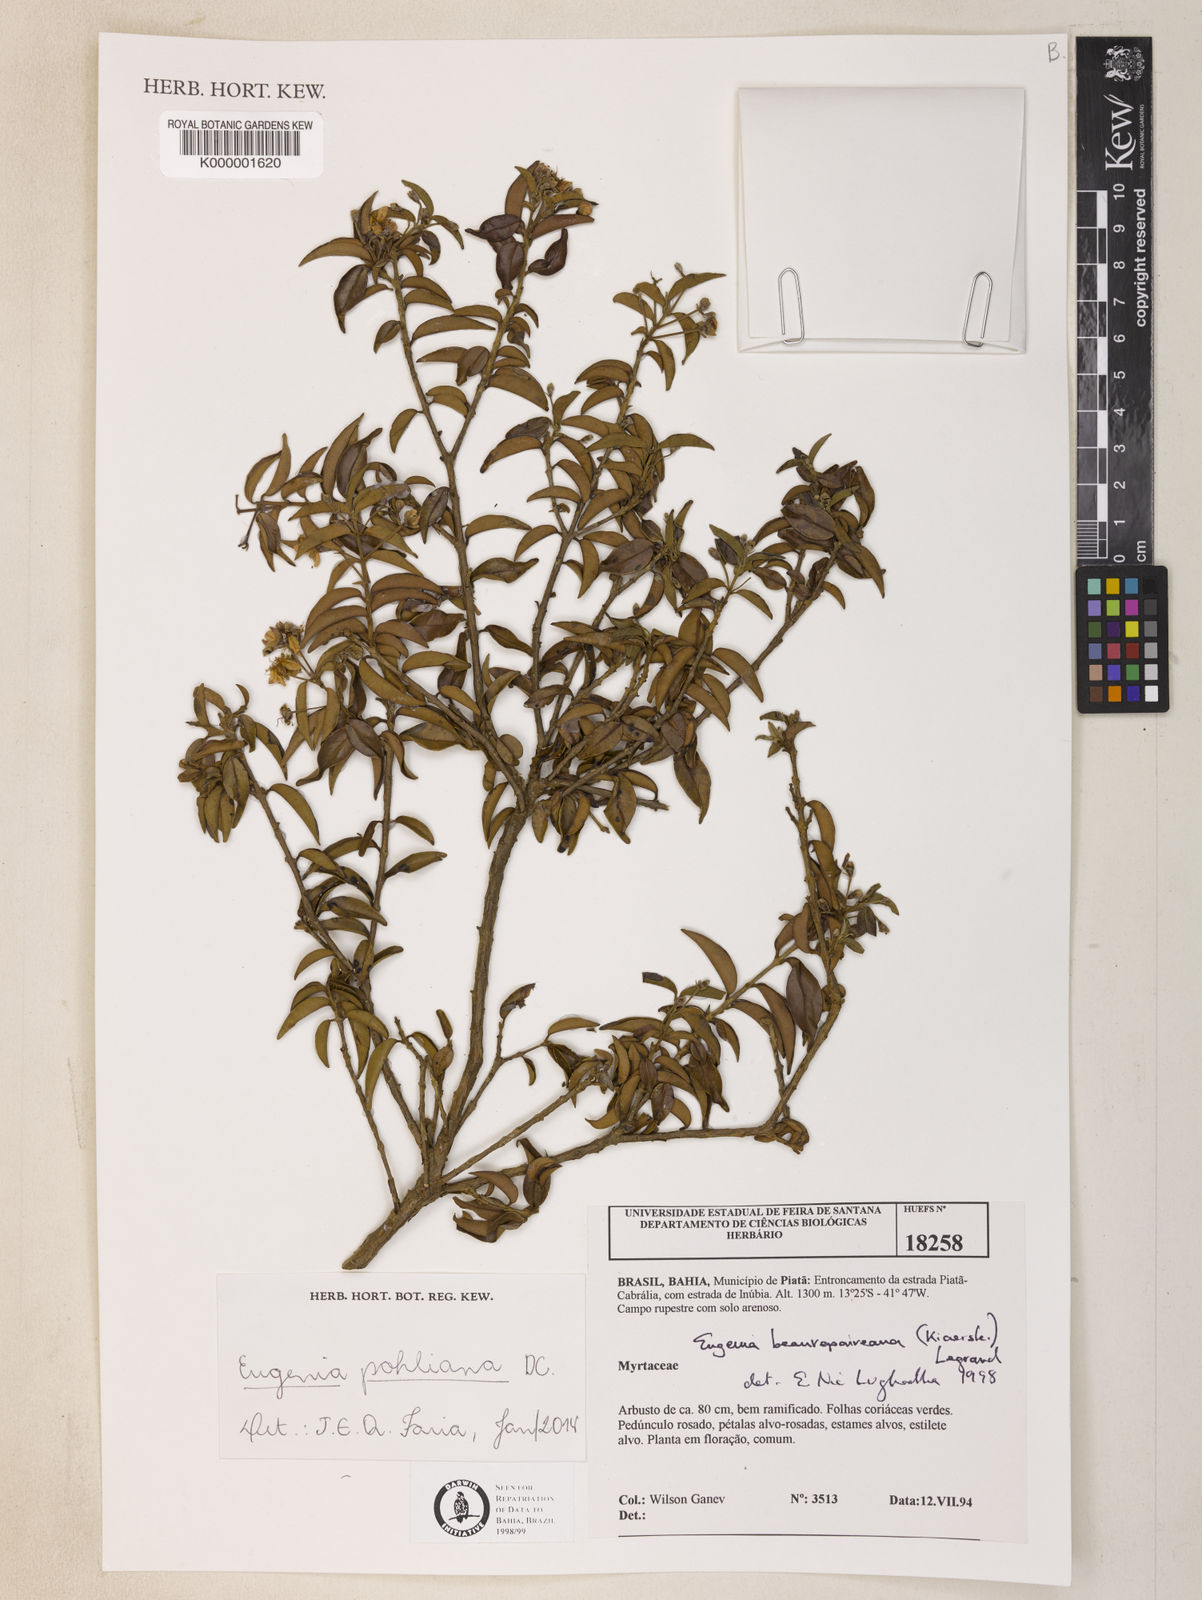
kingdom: Plantae
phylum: Tracheophyta
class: Magnoliopsida
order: Myrtales
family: Myrtaceae
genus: Eugenia
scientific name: Eugenia pohliana
